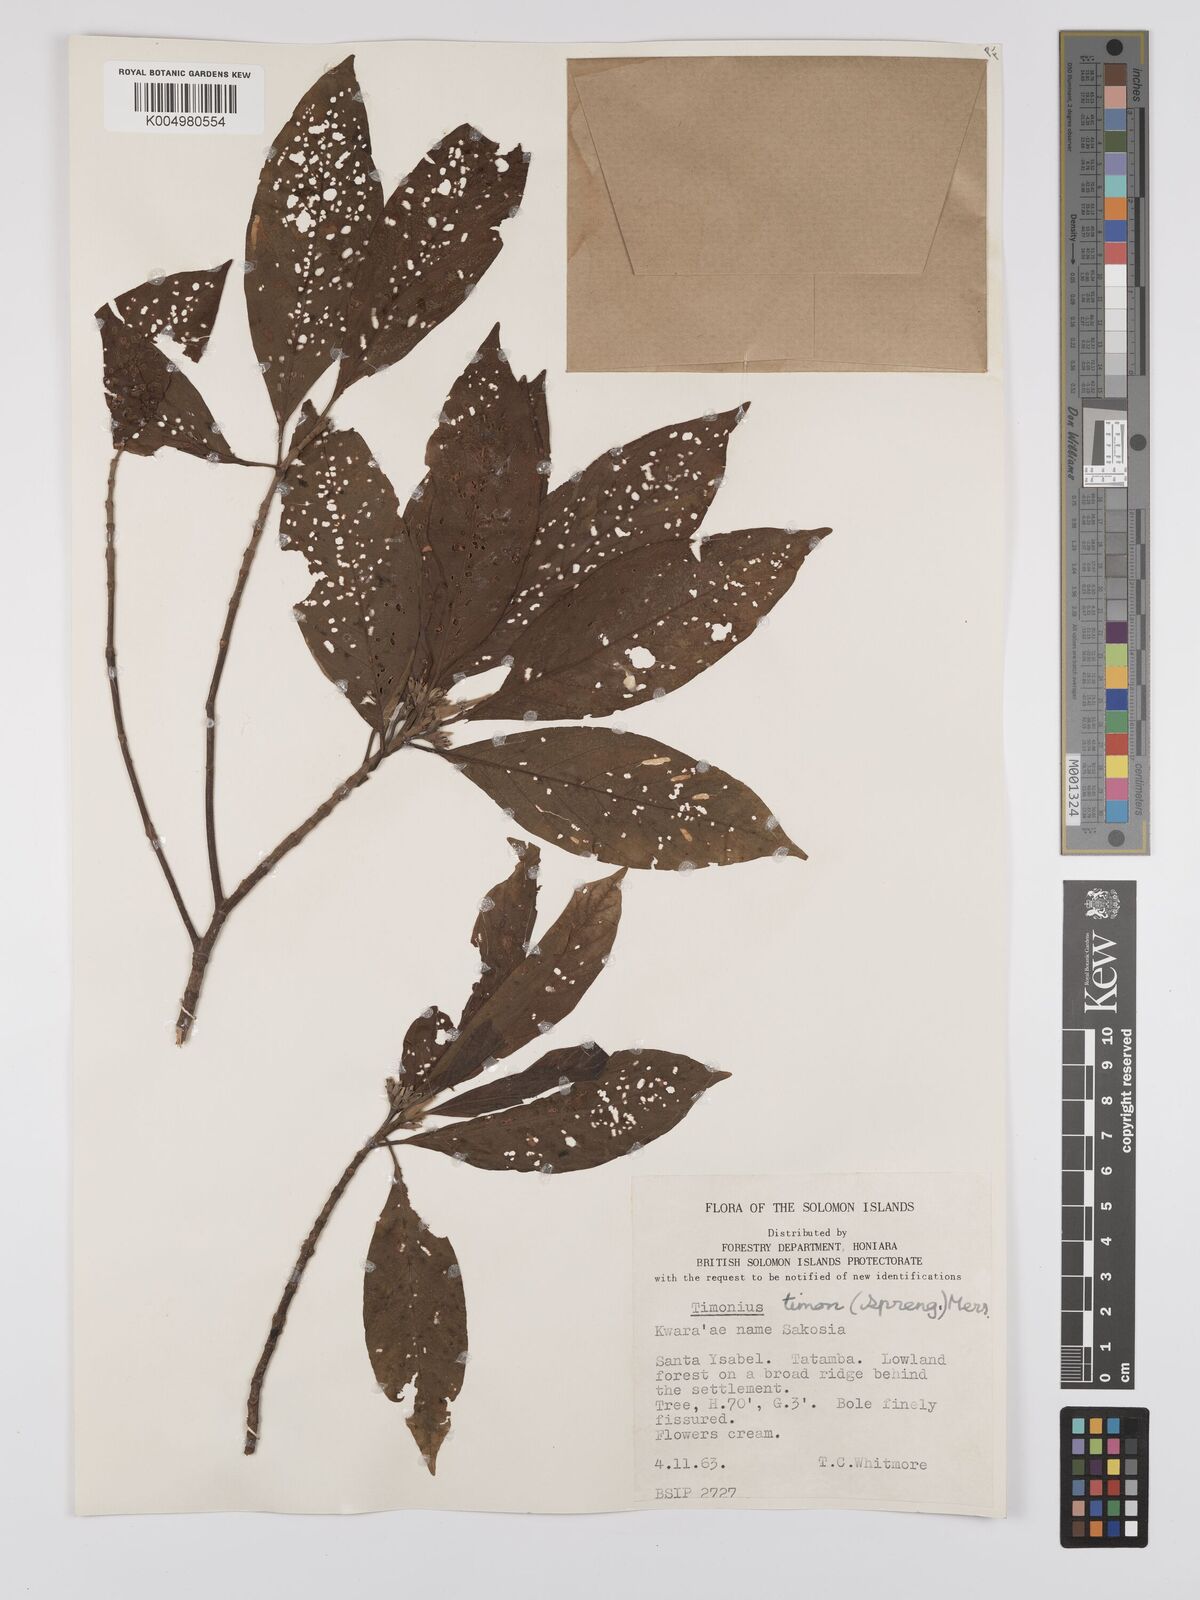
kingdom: Plantae
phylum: Tracheophyta
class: Magnoliopsida
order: Gentianales
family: Rubiaceae
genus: Timonius
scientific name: Timonius timon
